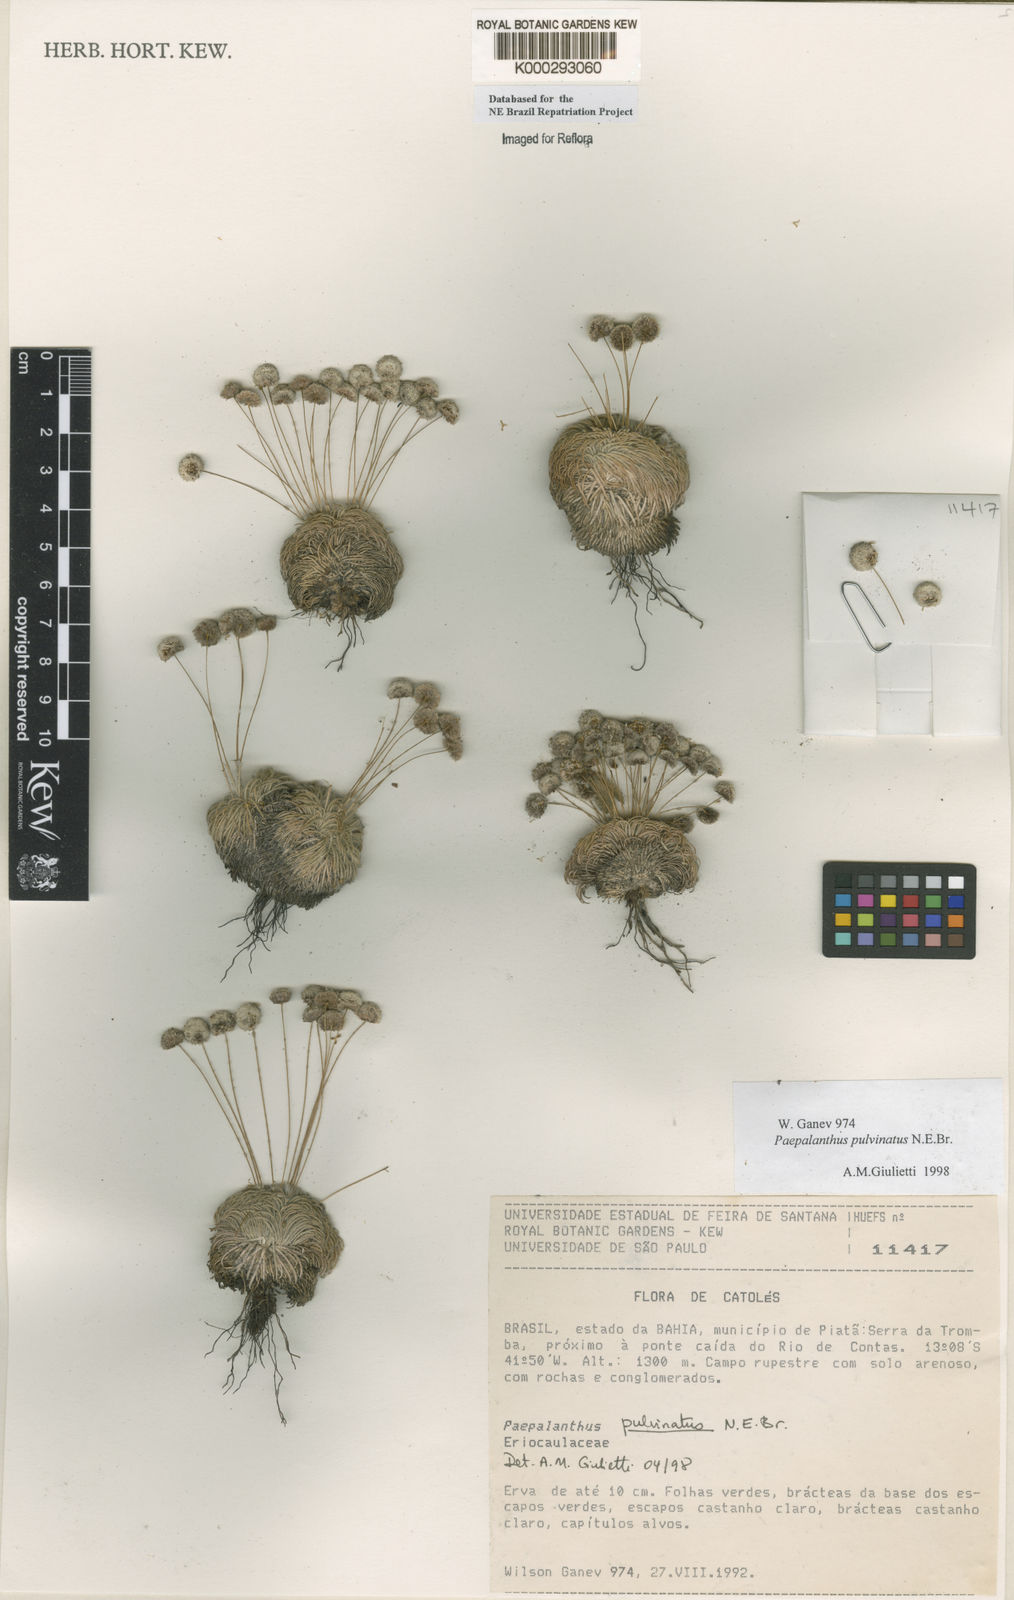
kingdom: Plantae
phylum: Tracheophyta
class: Liliopsida
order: Poales
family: Eriocaulaceae
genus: Paepalanthus
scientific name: Paepalanthus pulvinatus
